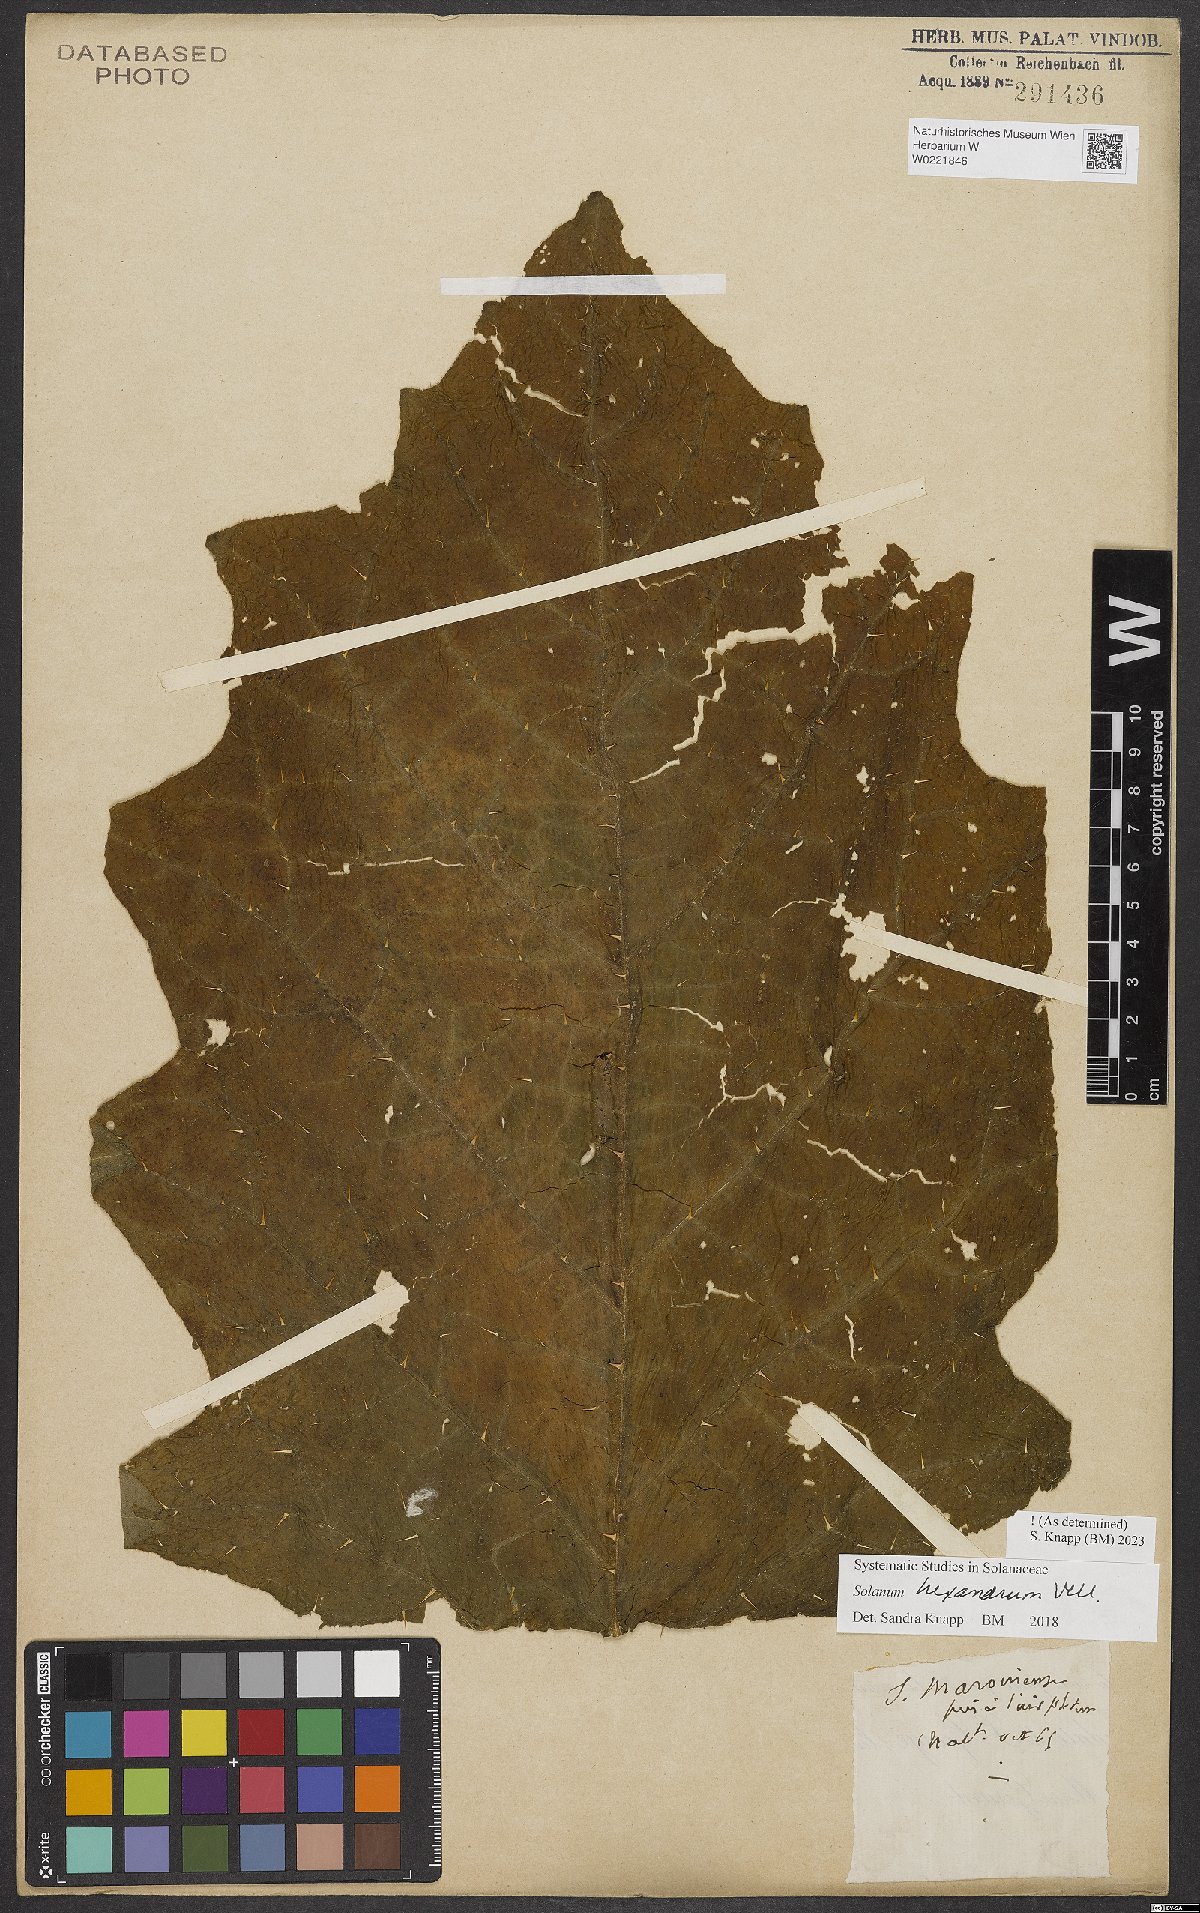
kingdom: Plantae
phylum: Tracheophyta
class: Magnoliopsida
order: Solanales
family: Solanaceae
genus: Solanum
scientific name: Solanum hexandrum
